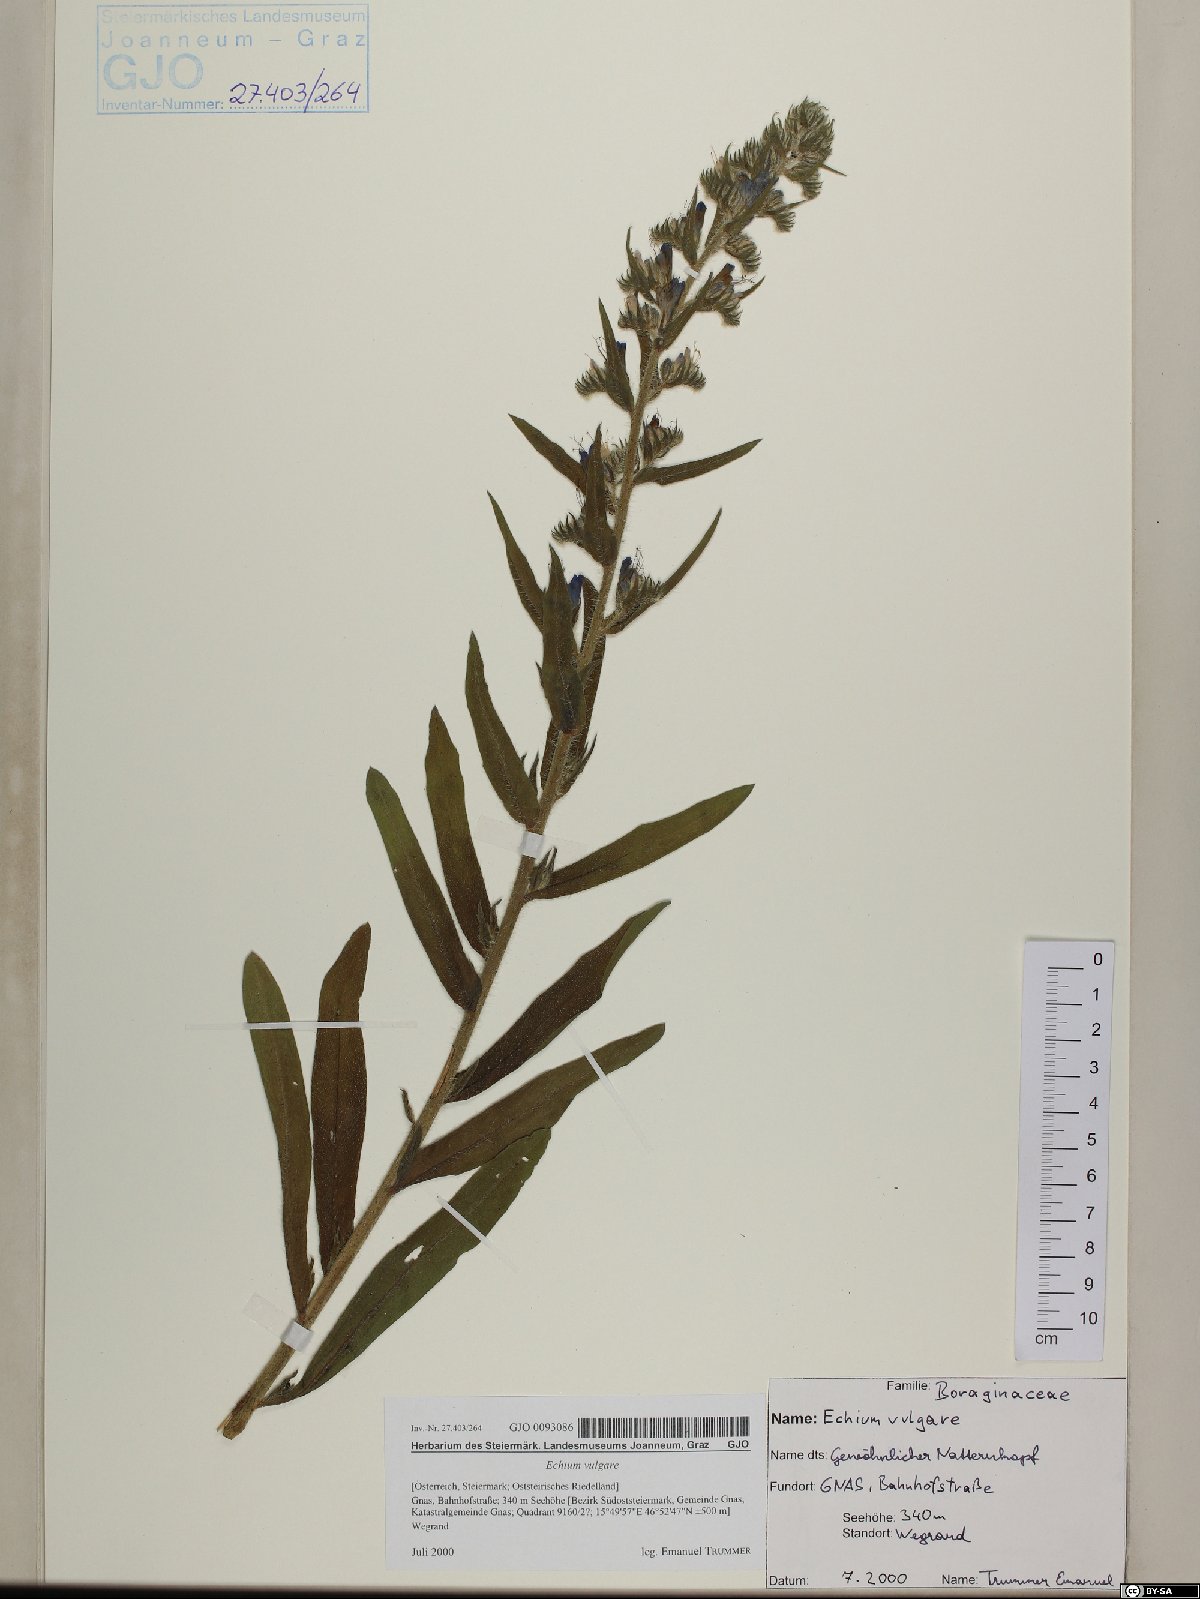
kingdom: Plantae
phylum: Tracheophyta
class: Magnoliopsida
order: Boraginales
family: Boraginaceae
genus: Echium
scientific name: Echium vulgare
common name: Common viper's bugloss
